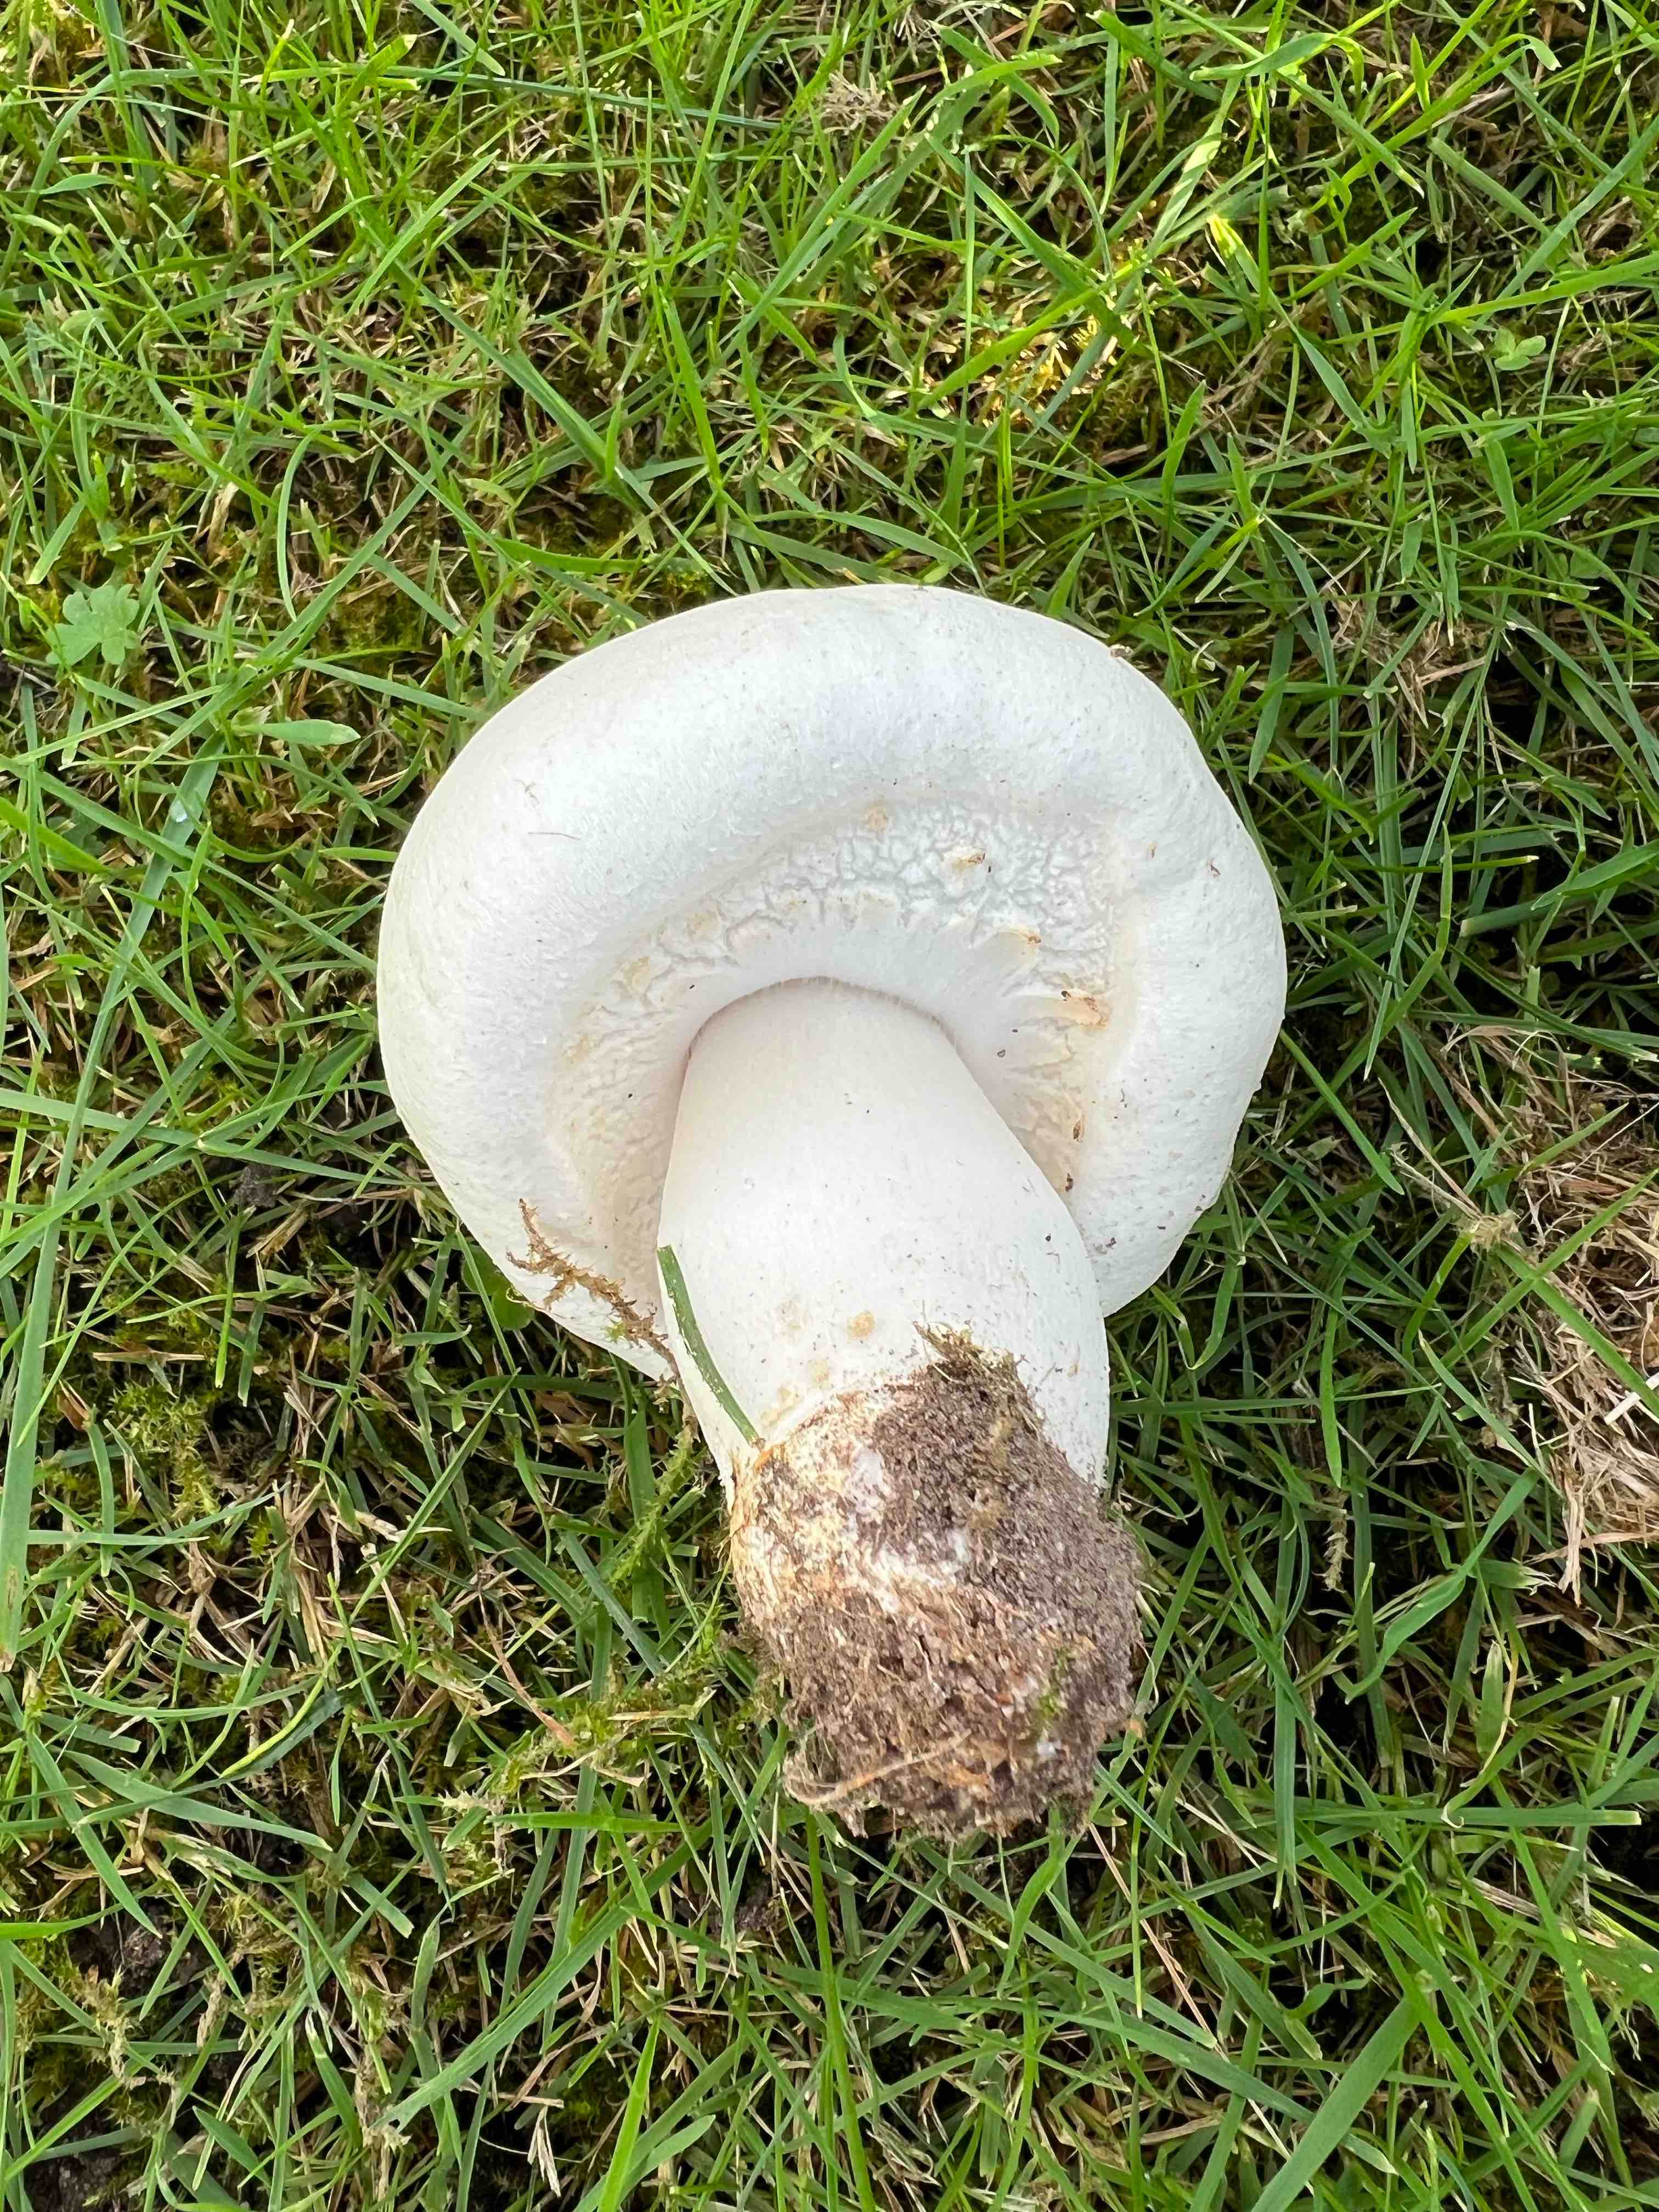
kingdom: Fungi
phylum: Basidiomycota
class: Agaricomycetes
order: Agaricales
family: Agaricaceae
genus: Agaricus
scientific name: Agaricus arvensis
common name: ager-champignon
